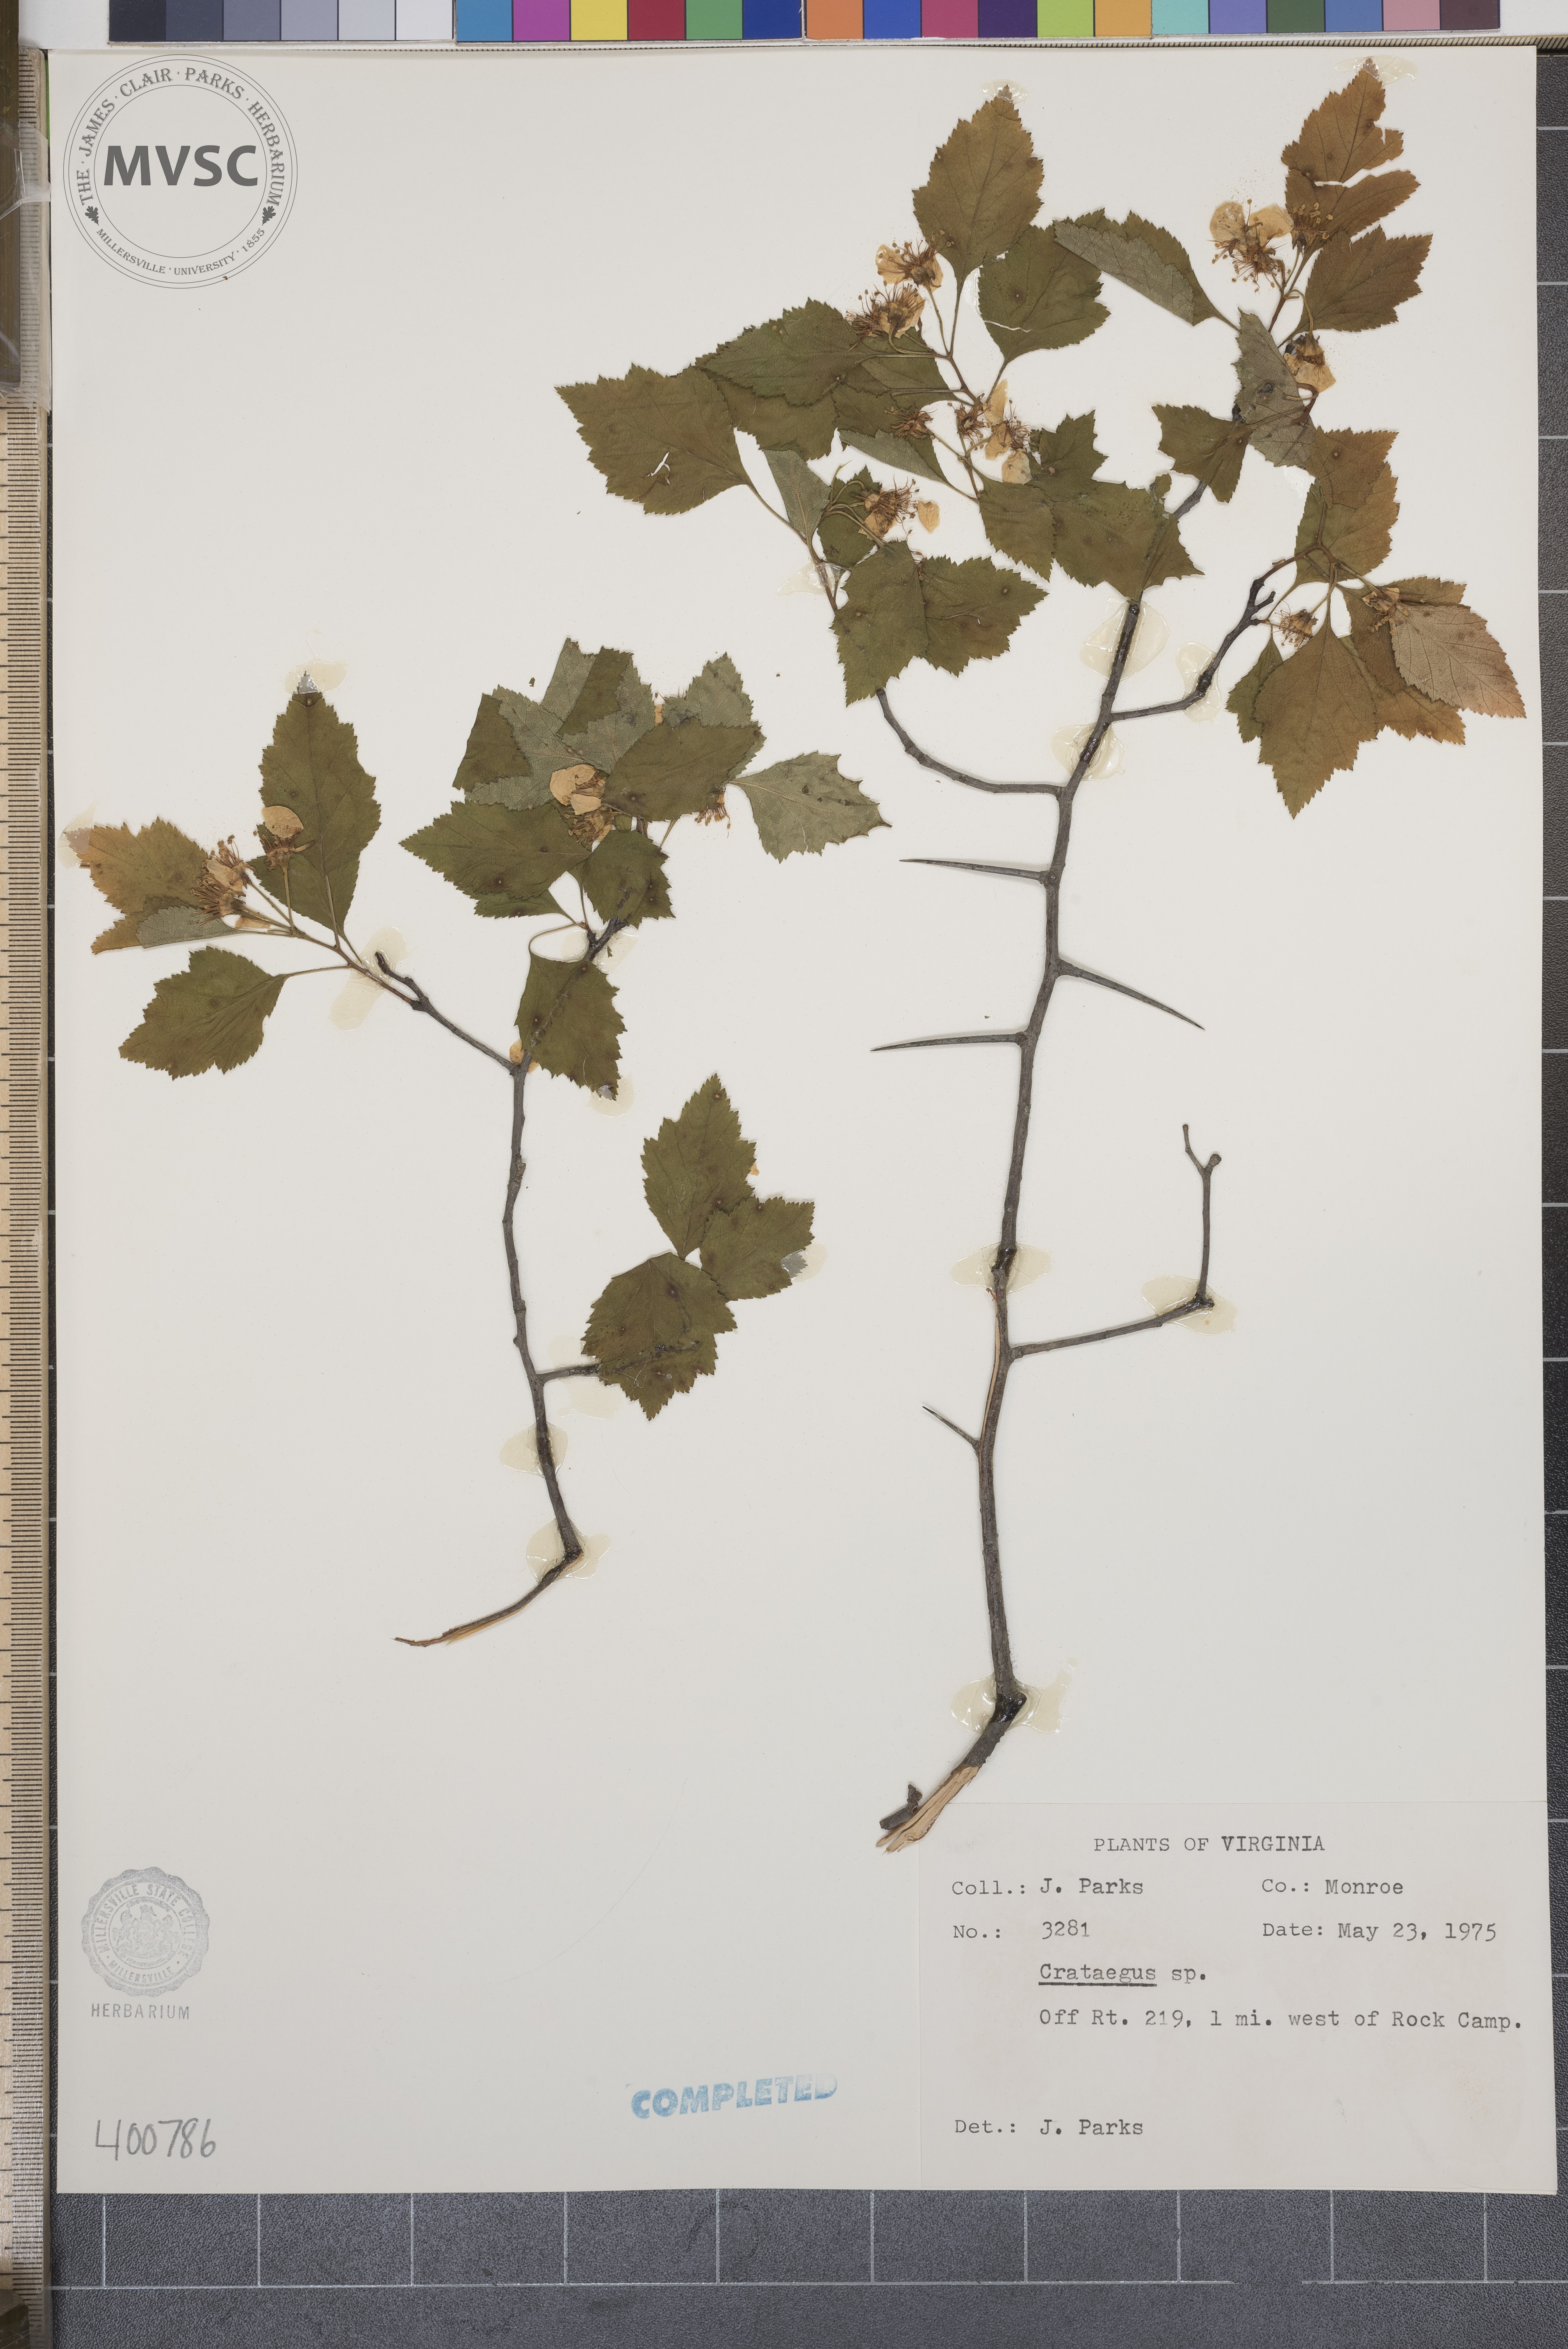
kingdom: Plantae
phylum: Tracheophyta
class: Magnoliopsida
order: Rosales
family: Rosaceae
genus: Crataegus
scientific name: Crataegus
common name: hawthorn
